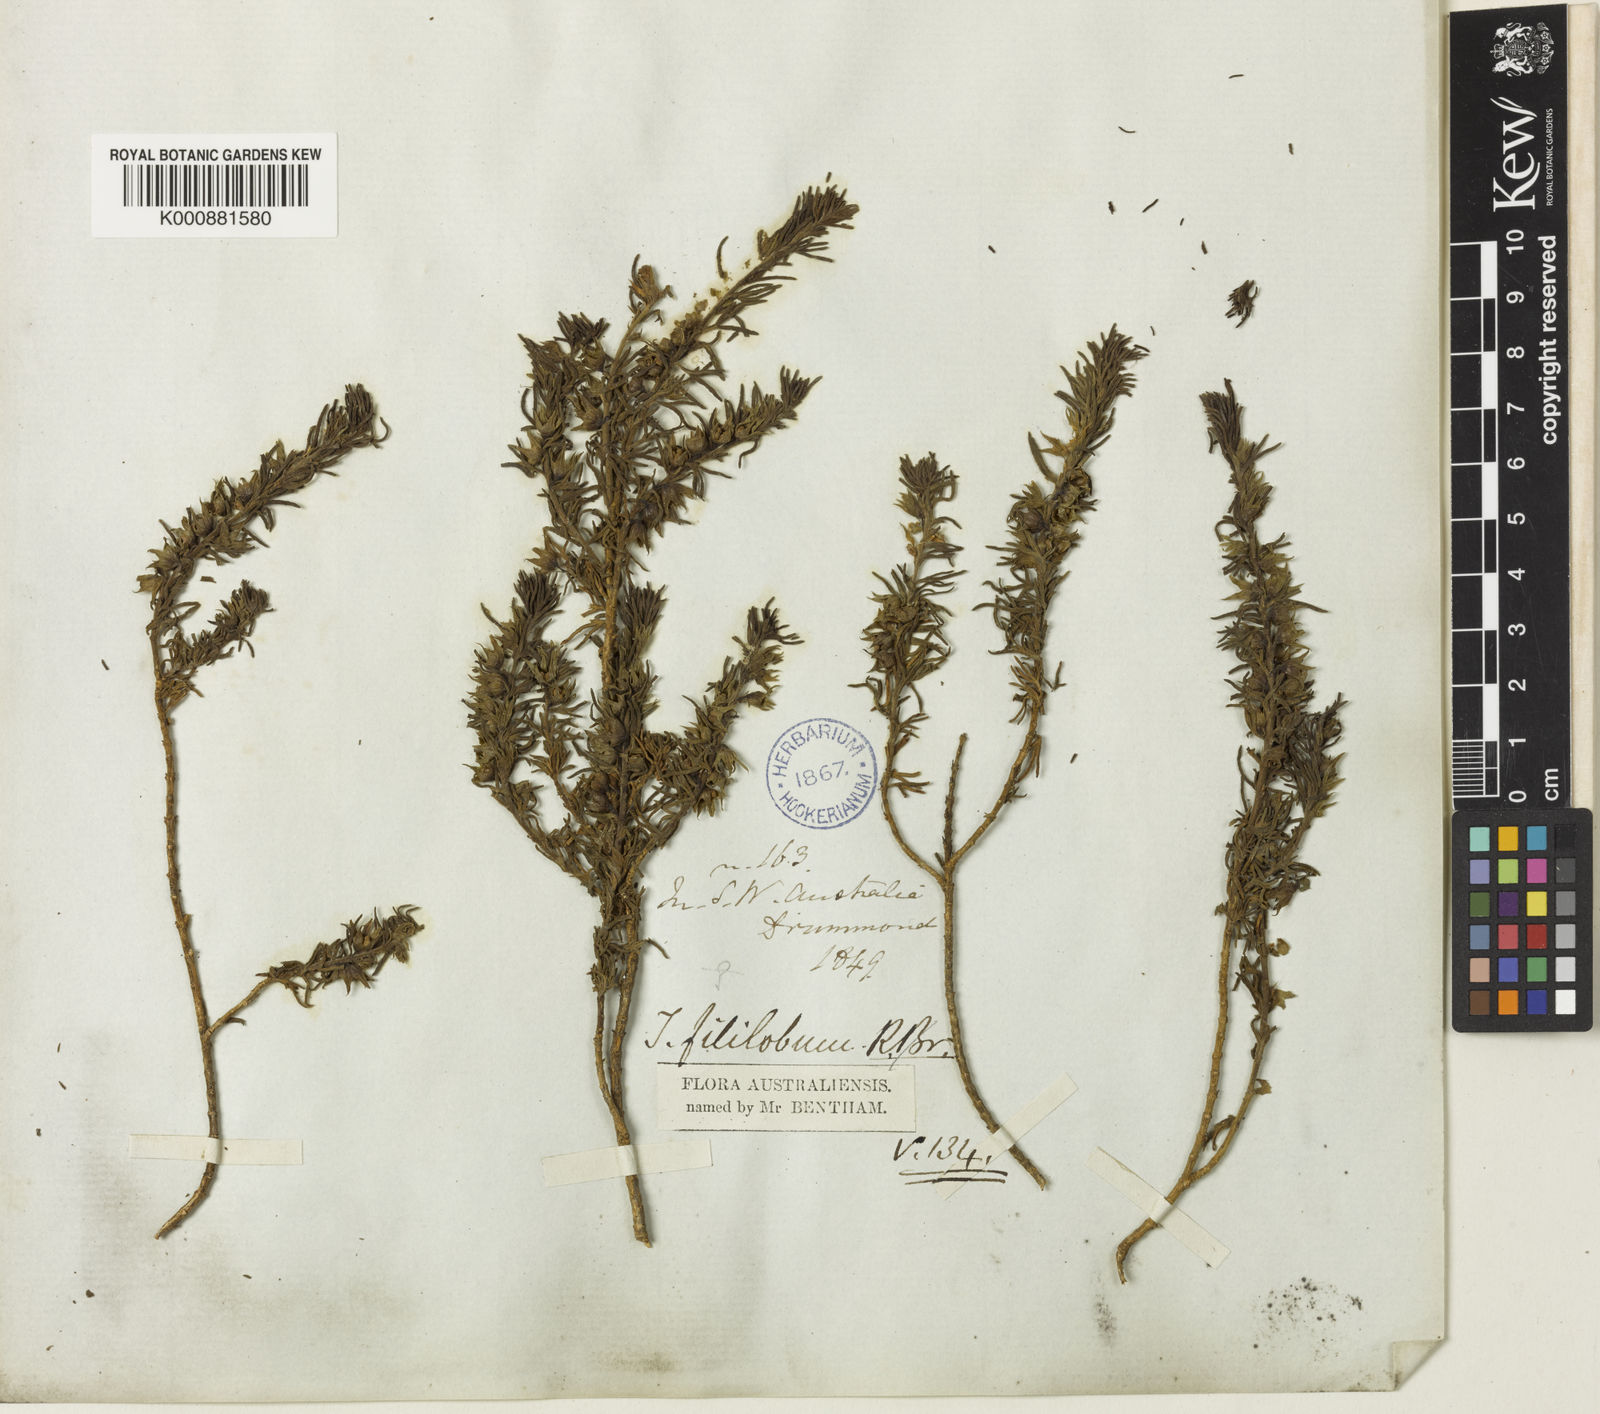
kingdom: Plantae
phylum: Tracheophyta
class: Magnoliopsida
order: Lamiales
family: Plantaginaceae
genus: Campylanthus
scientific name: Campylanthus salsoloides
